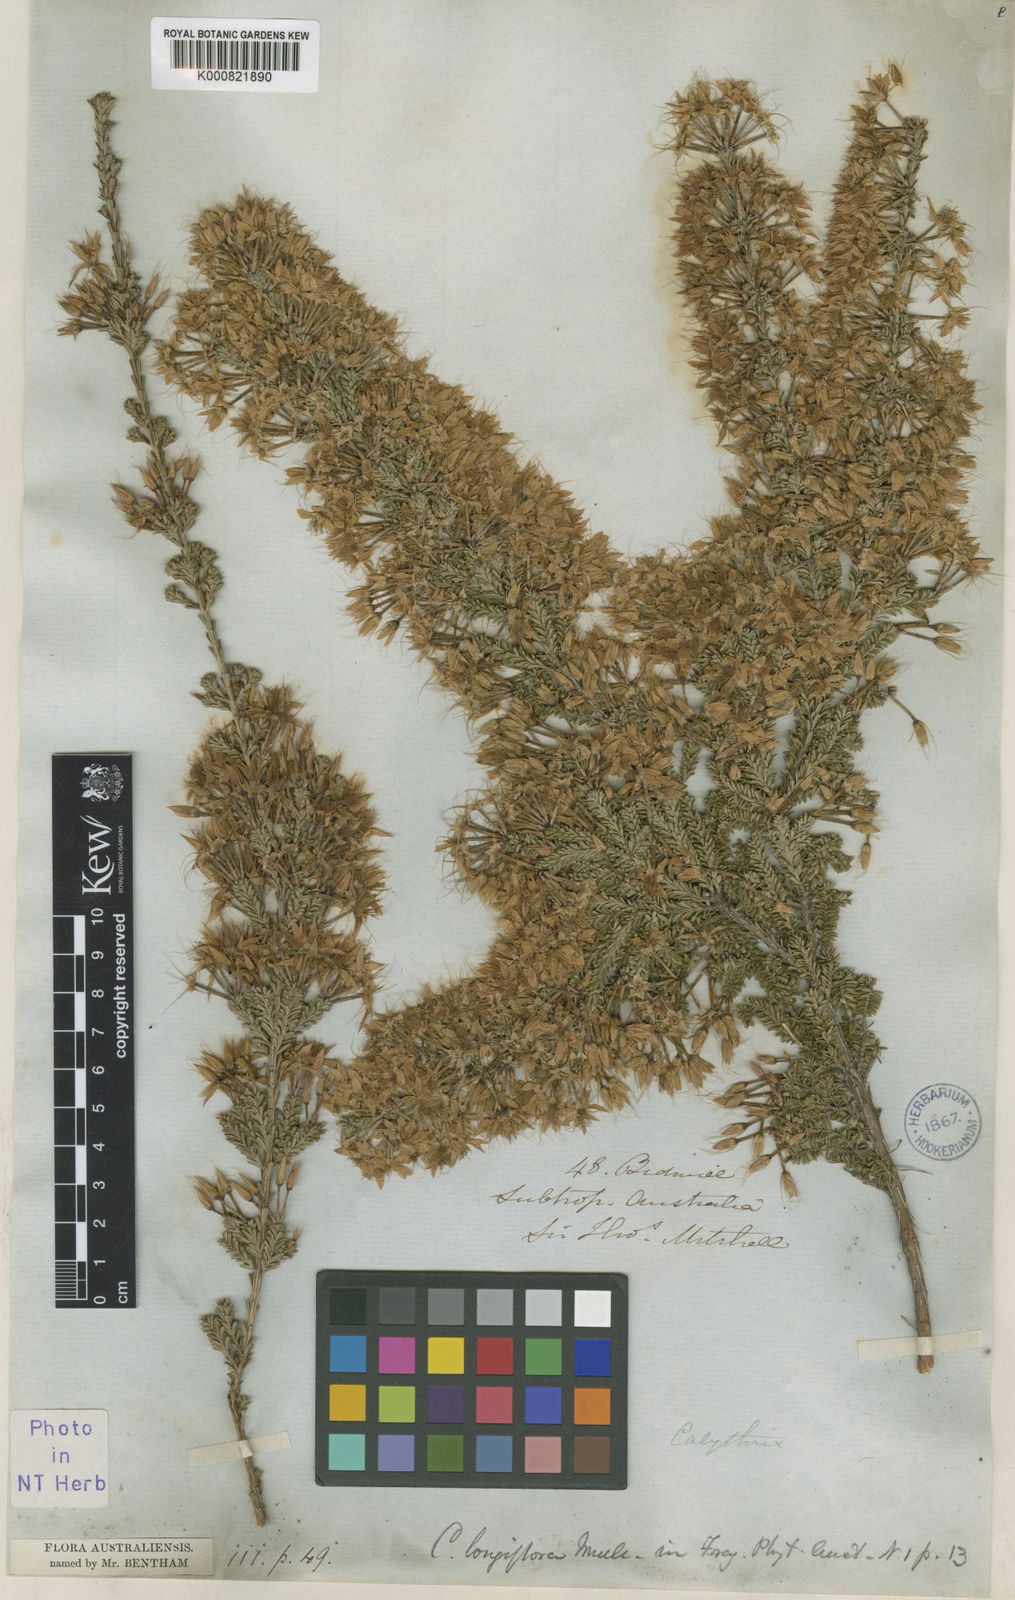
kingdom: Plantae
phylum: Tracheophyta
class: Magnoliopsida
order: Myrtales
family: Myrtaceae
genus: Calytrix
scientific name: Calytrix longiflora
